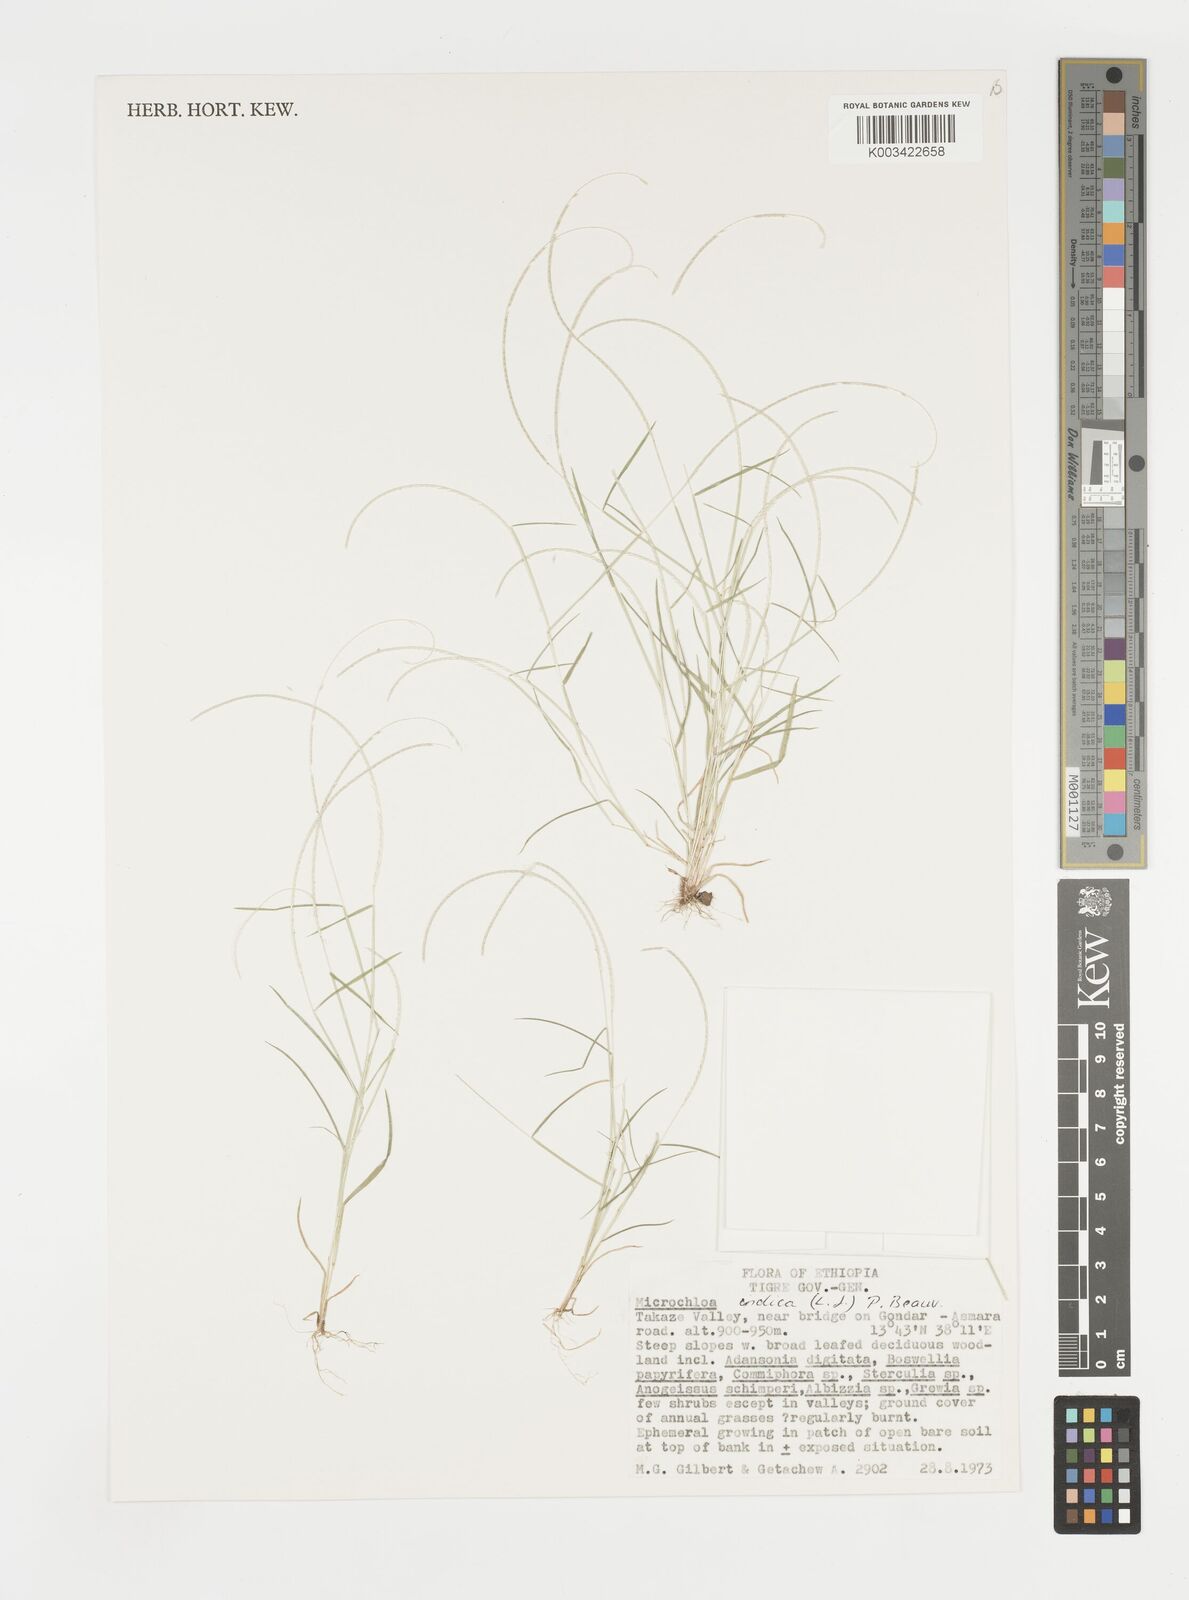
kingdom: Plantae
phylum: Tracheophyta
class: Liliopsida
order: Poales
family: Poaceae
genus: Microchloa
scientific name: Microchloa indica
